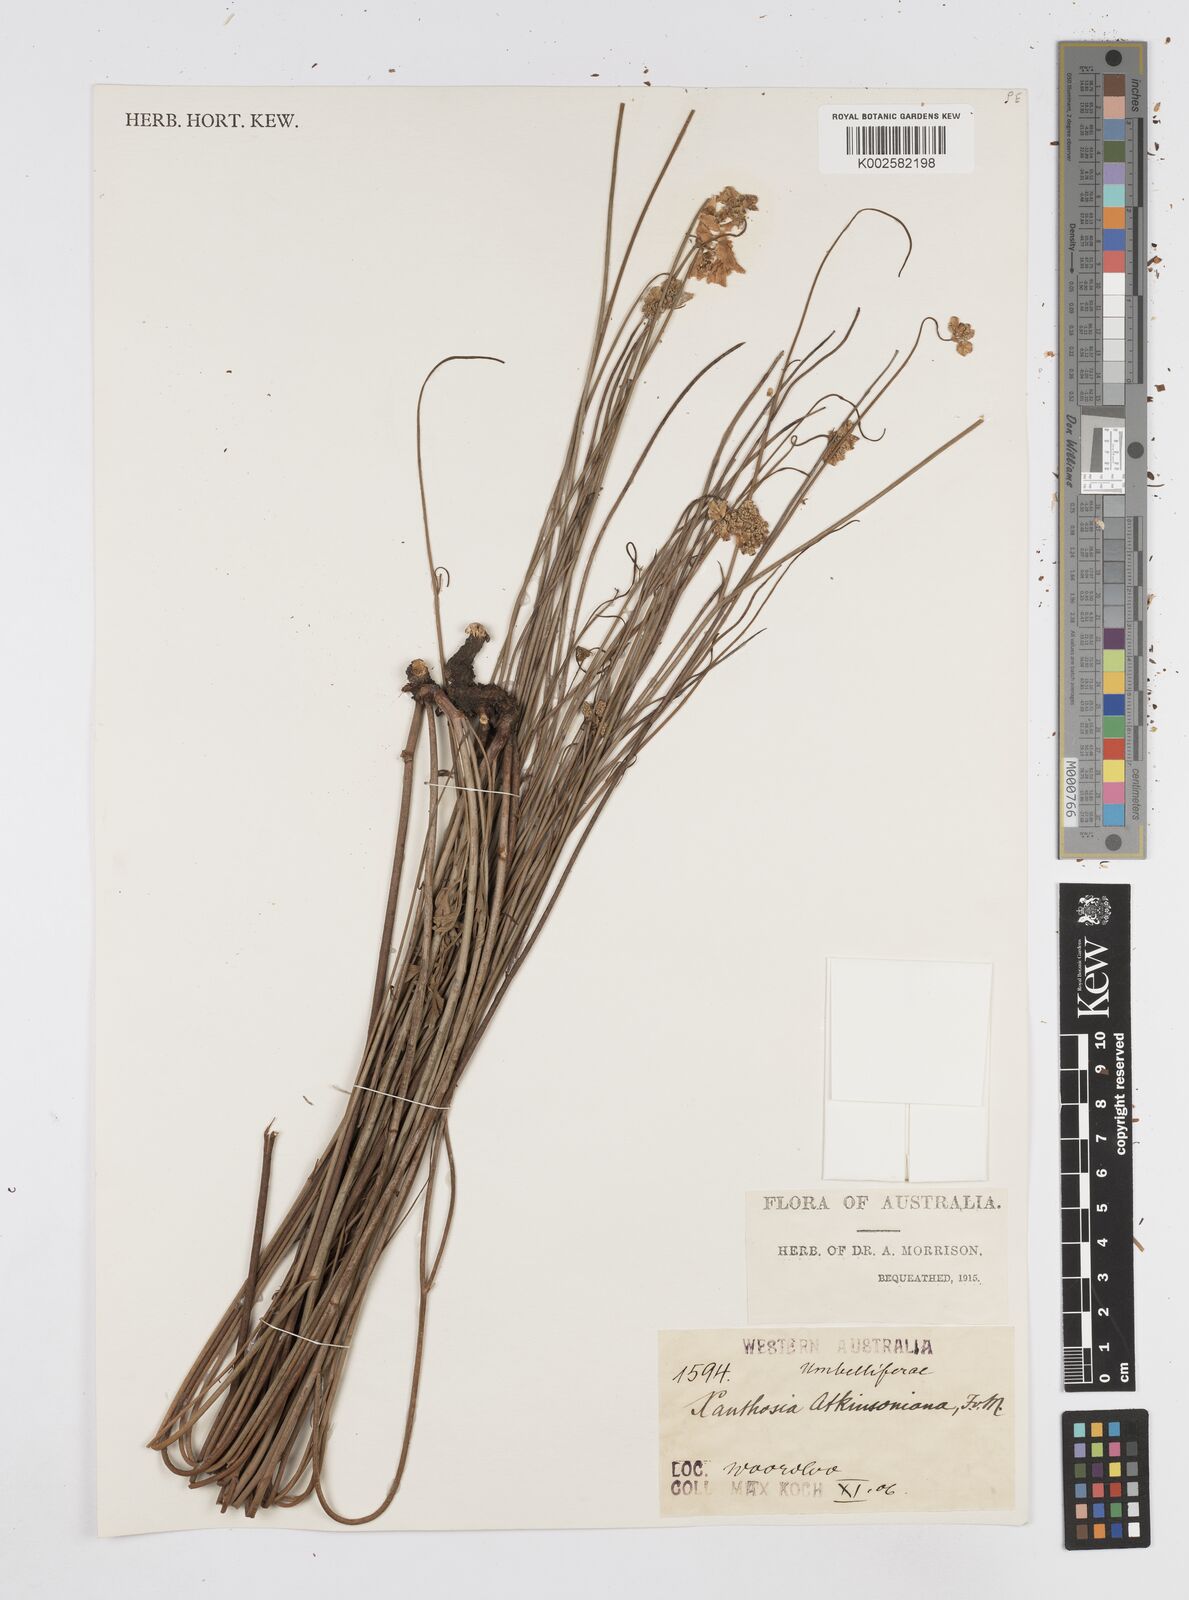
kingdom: Plantae
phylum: Tracheophyta
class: Magnoliopsida
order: Apiales
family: Apiaceae
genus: Xanthosia
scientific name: Xanthosia atkinsoniana
